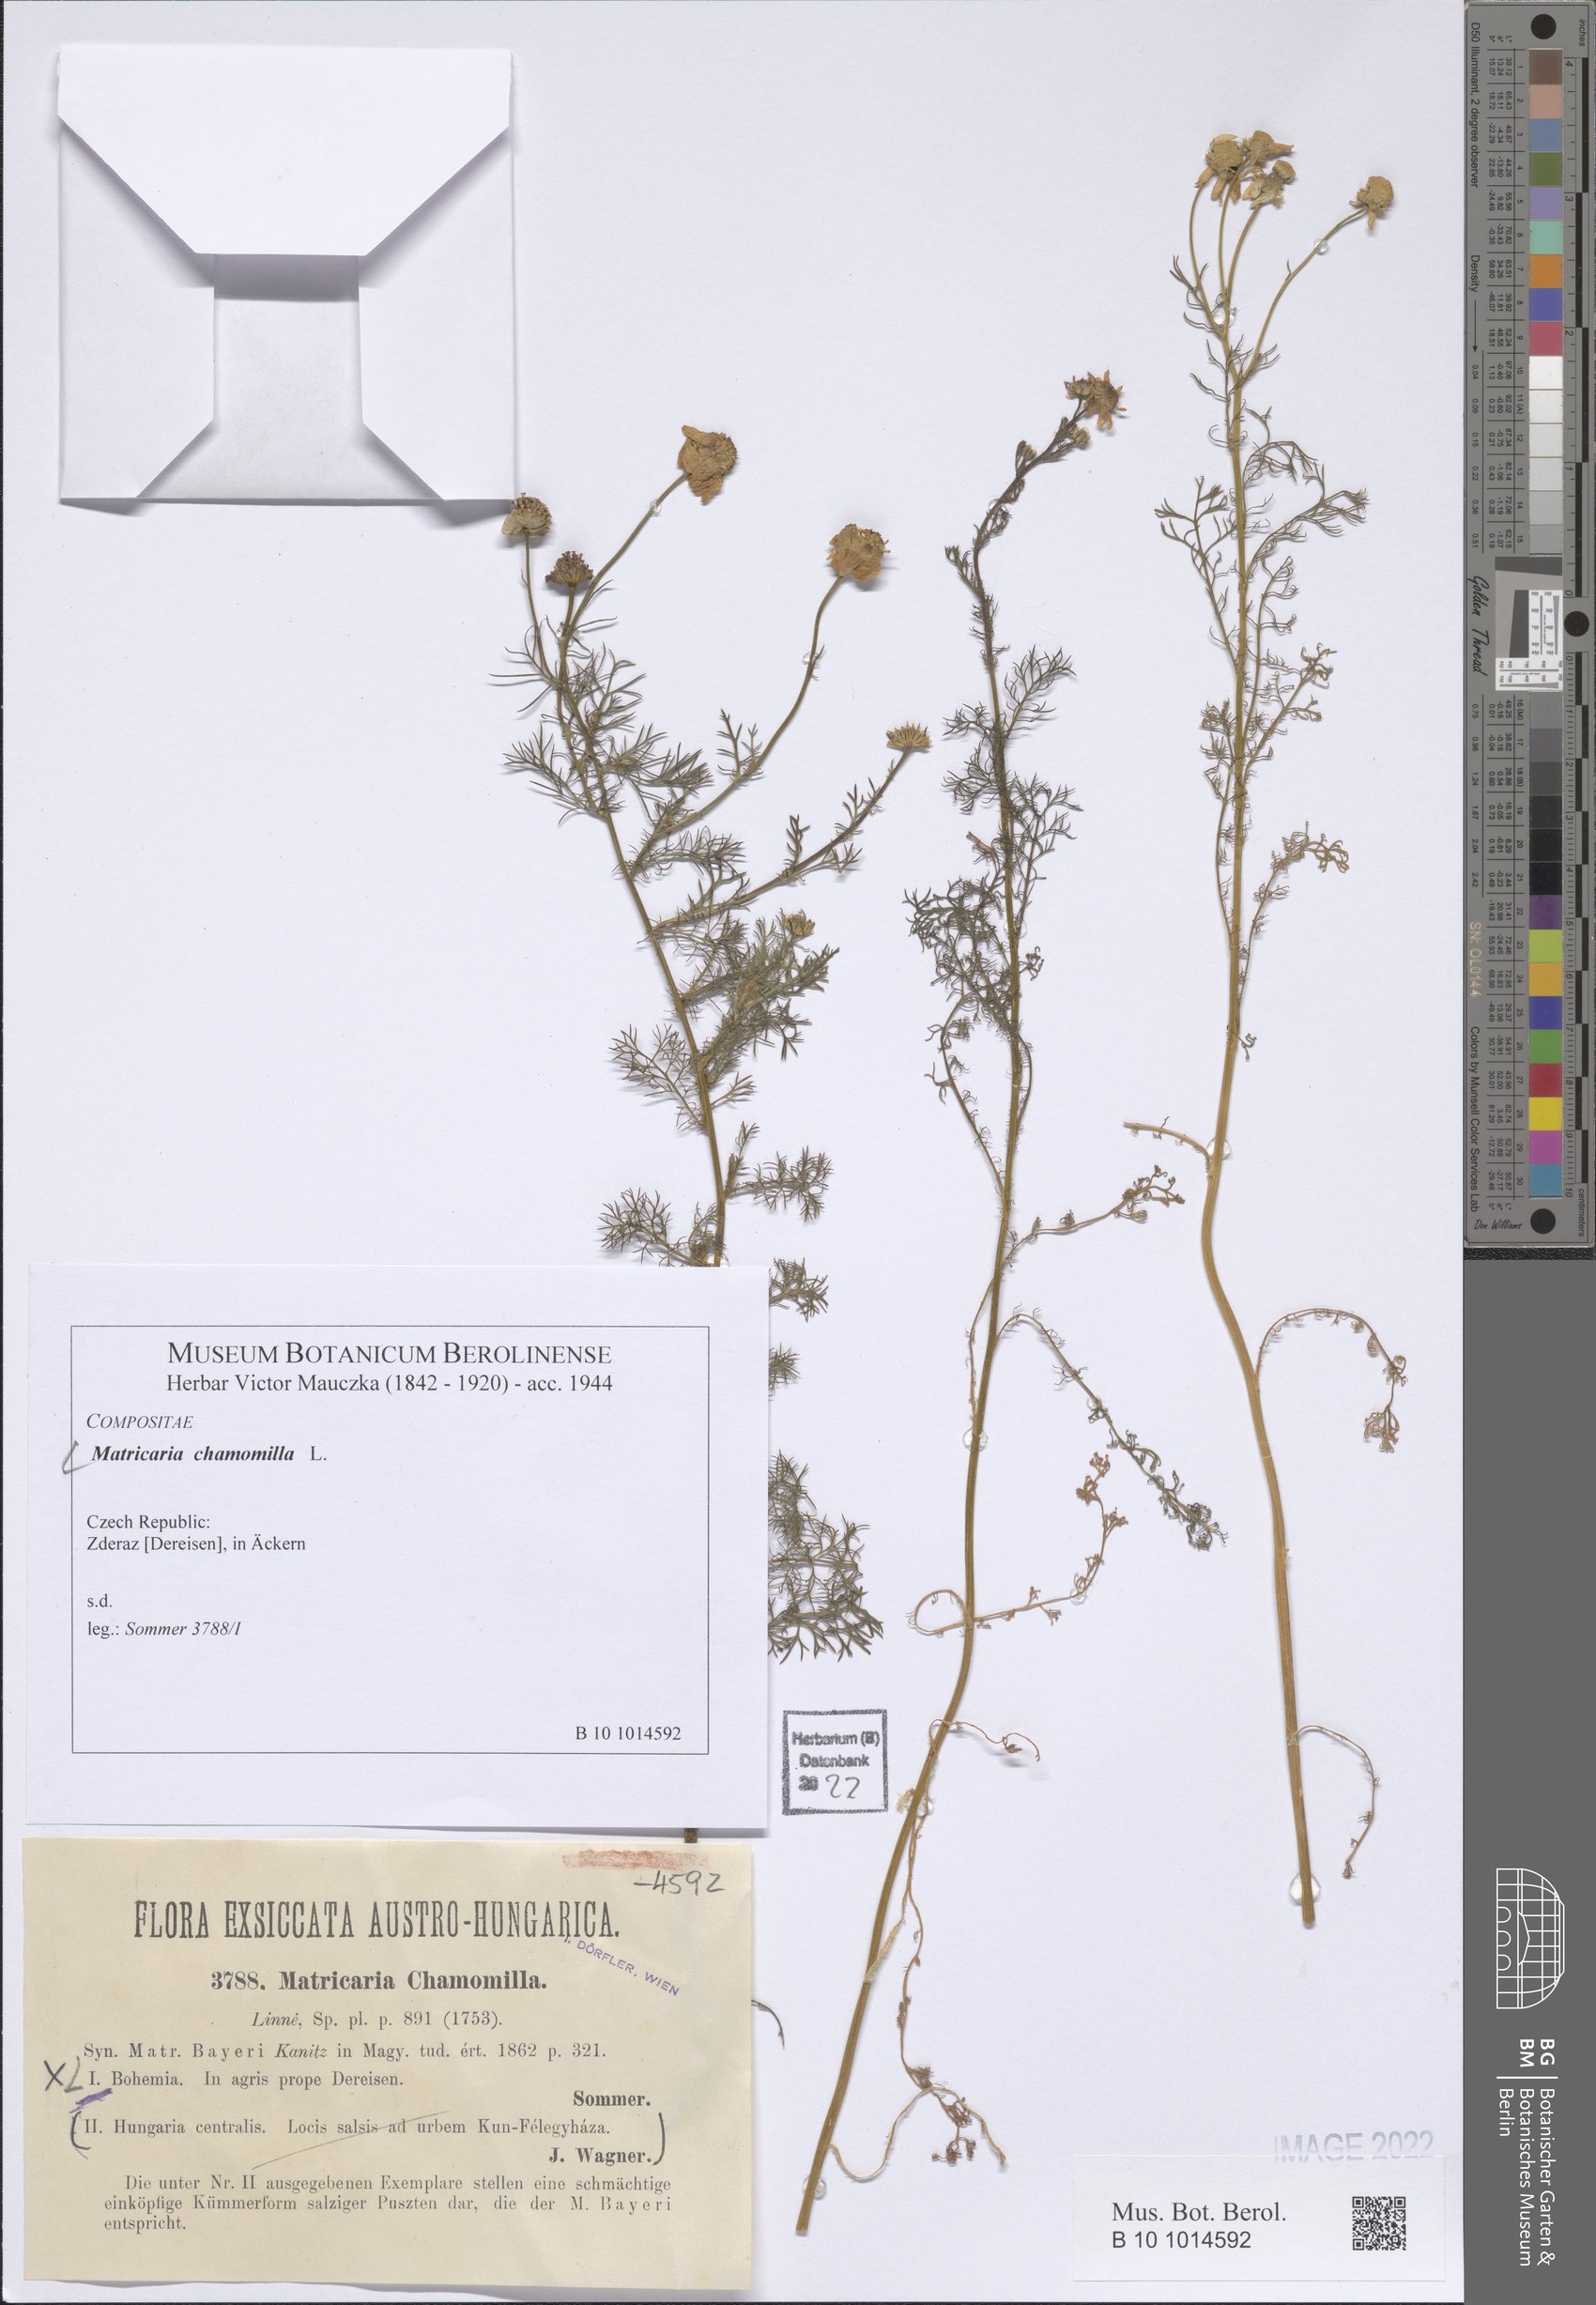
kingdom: Plantae
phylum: Tracheophyta
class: Magnoliopsida
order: Asterales
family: Asteraceae
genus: Matricaria
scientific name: Matricaria chamomilla
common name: Scented mayweed
